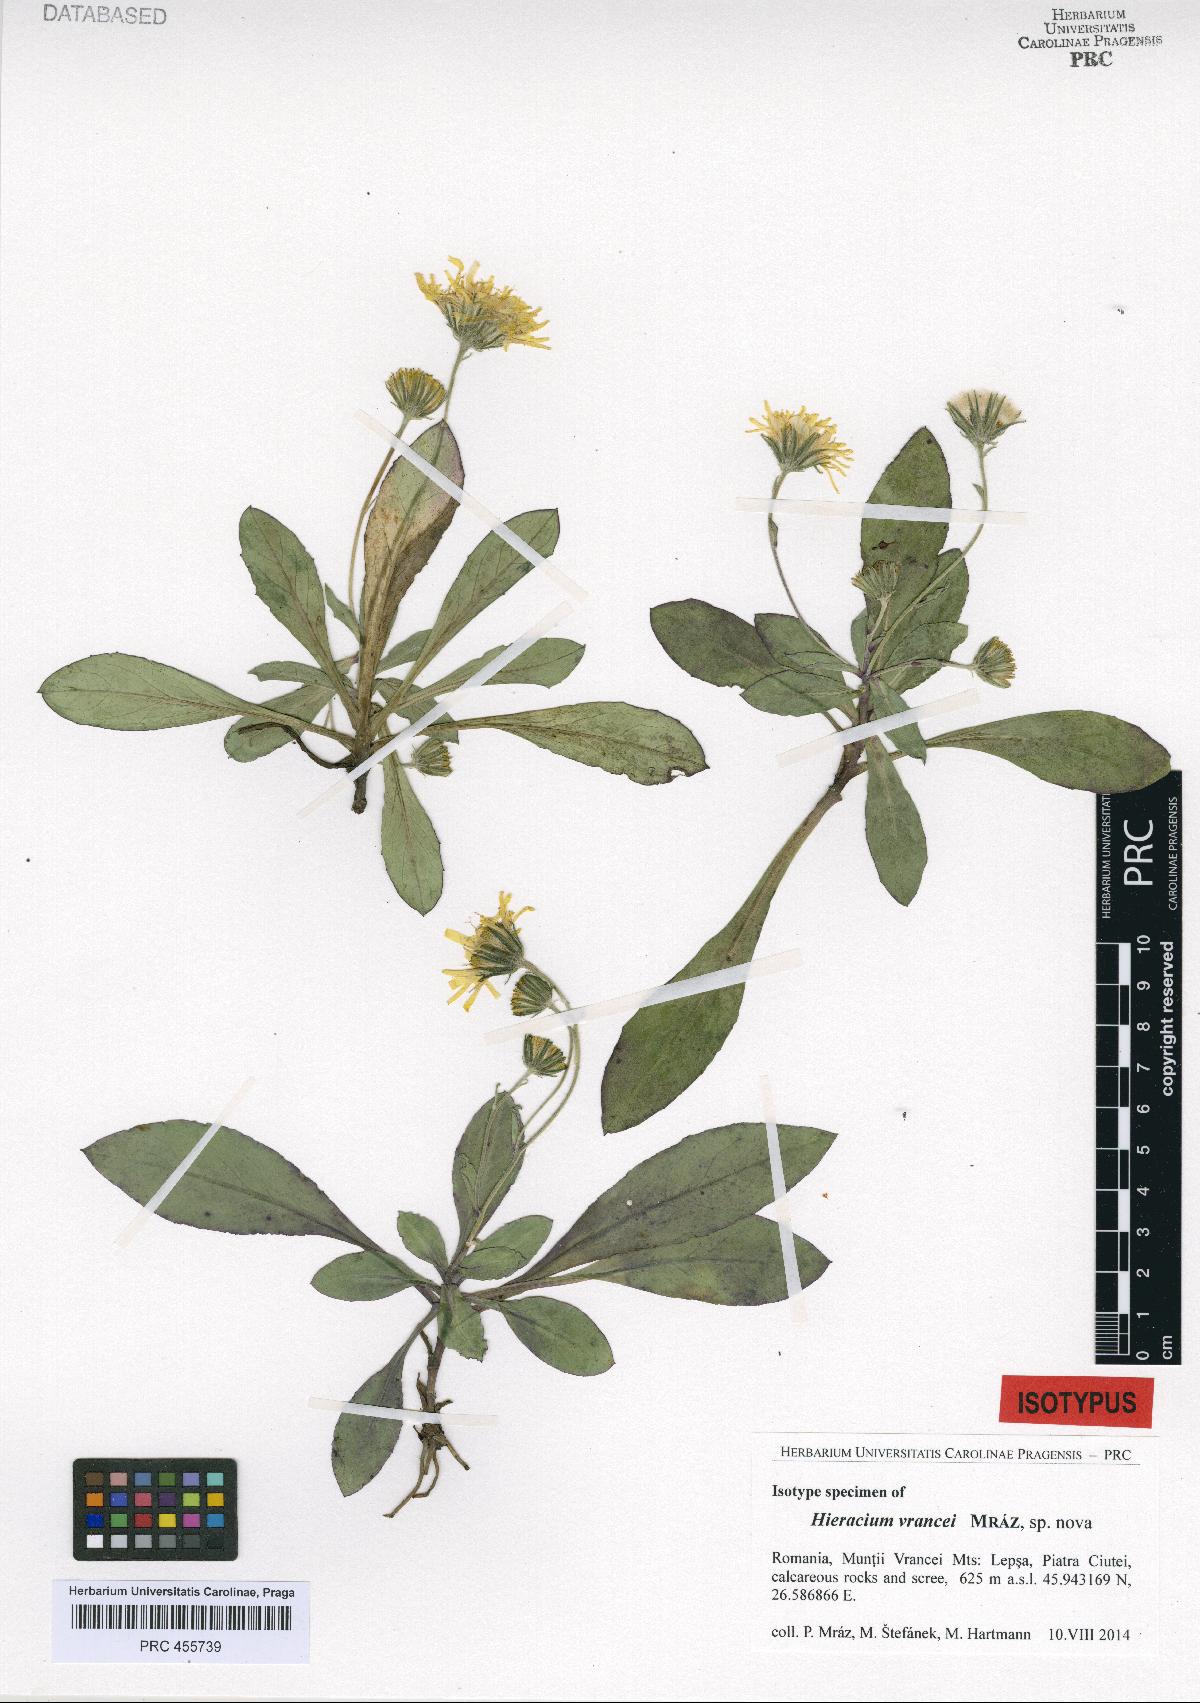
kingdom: Plantae
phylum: Tracheophyta
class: Magnoliopsida
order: Asterales
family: Asteraceae
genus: Hieracium
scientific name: Hieracium
